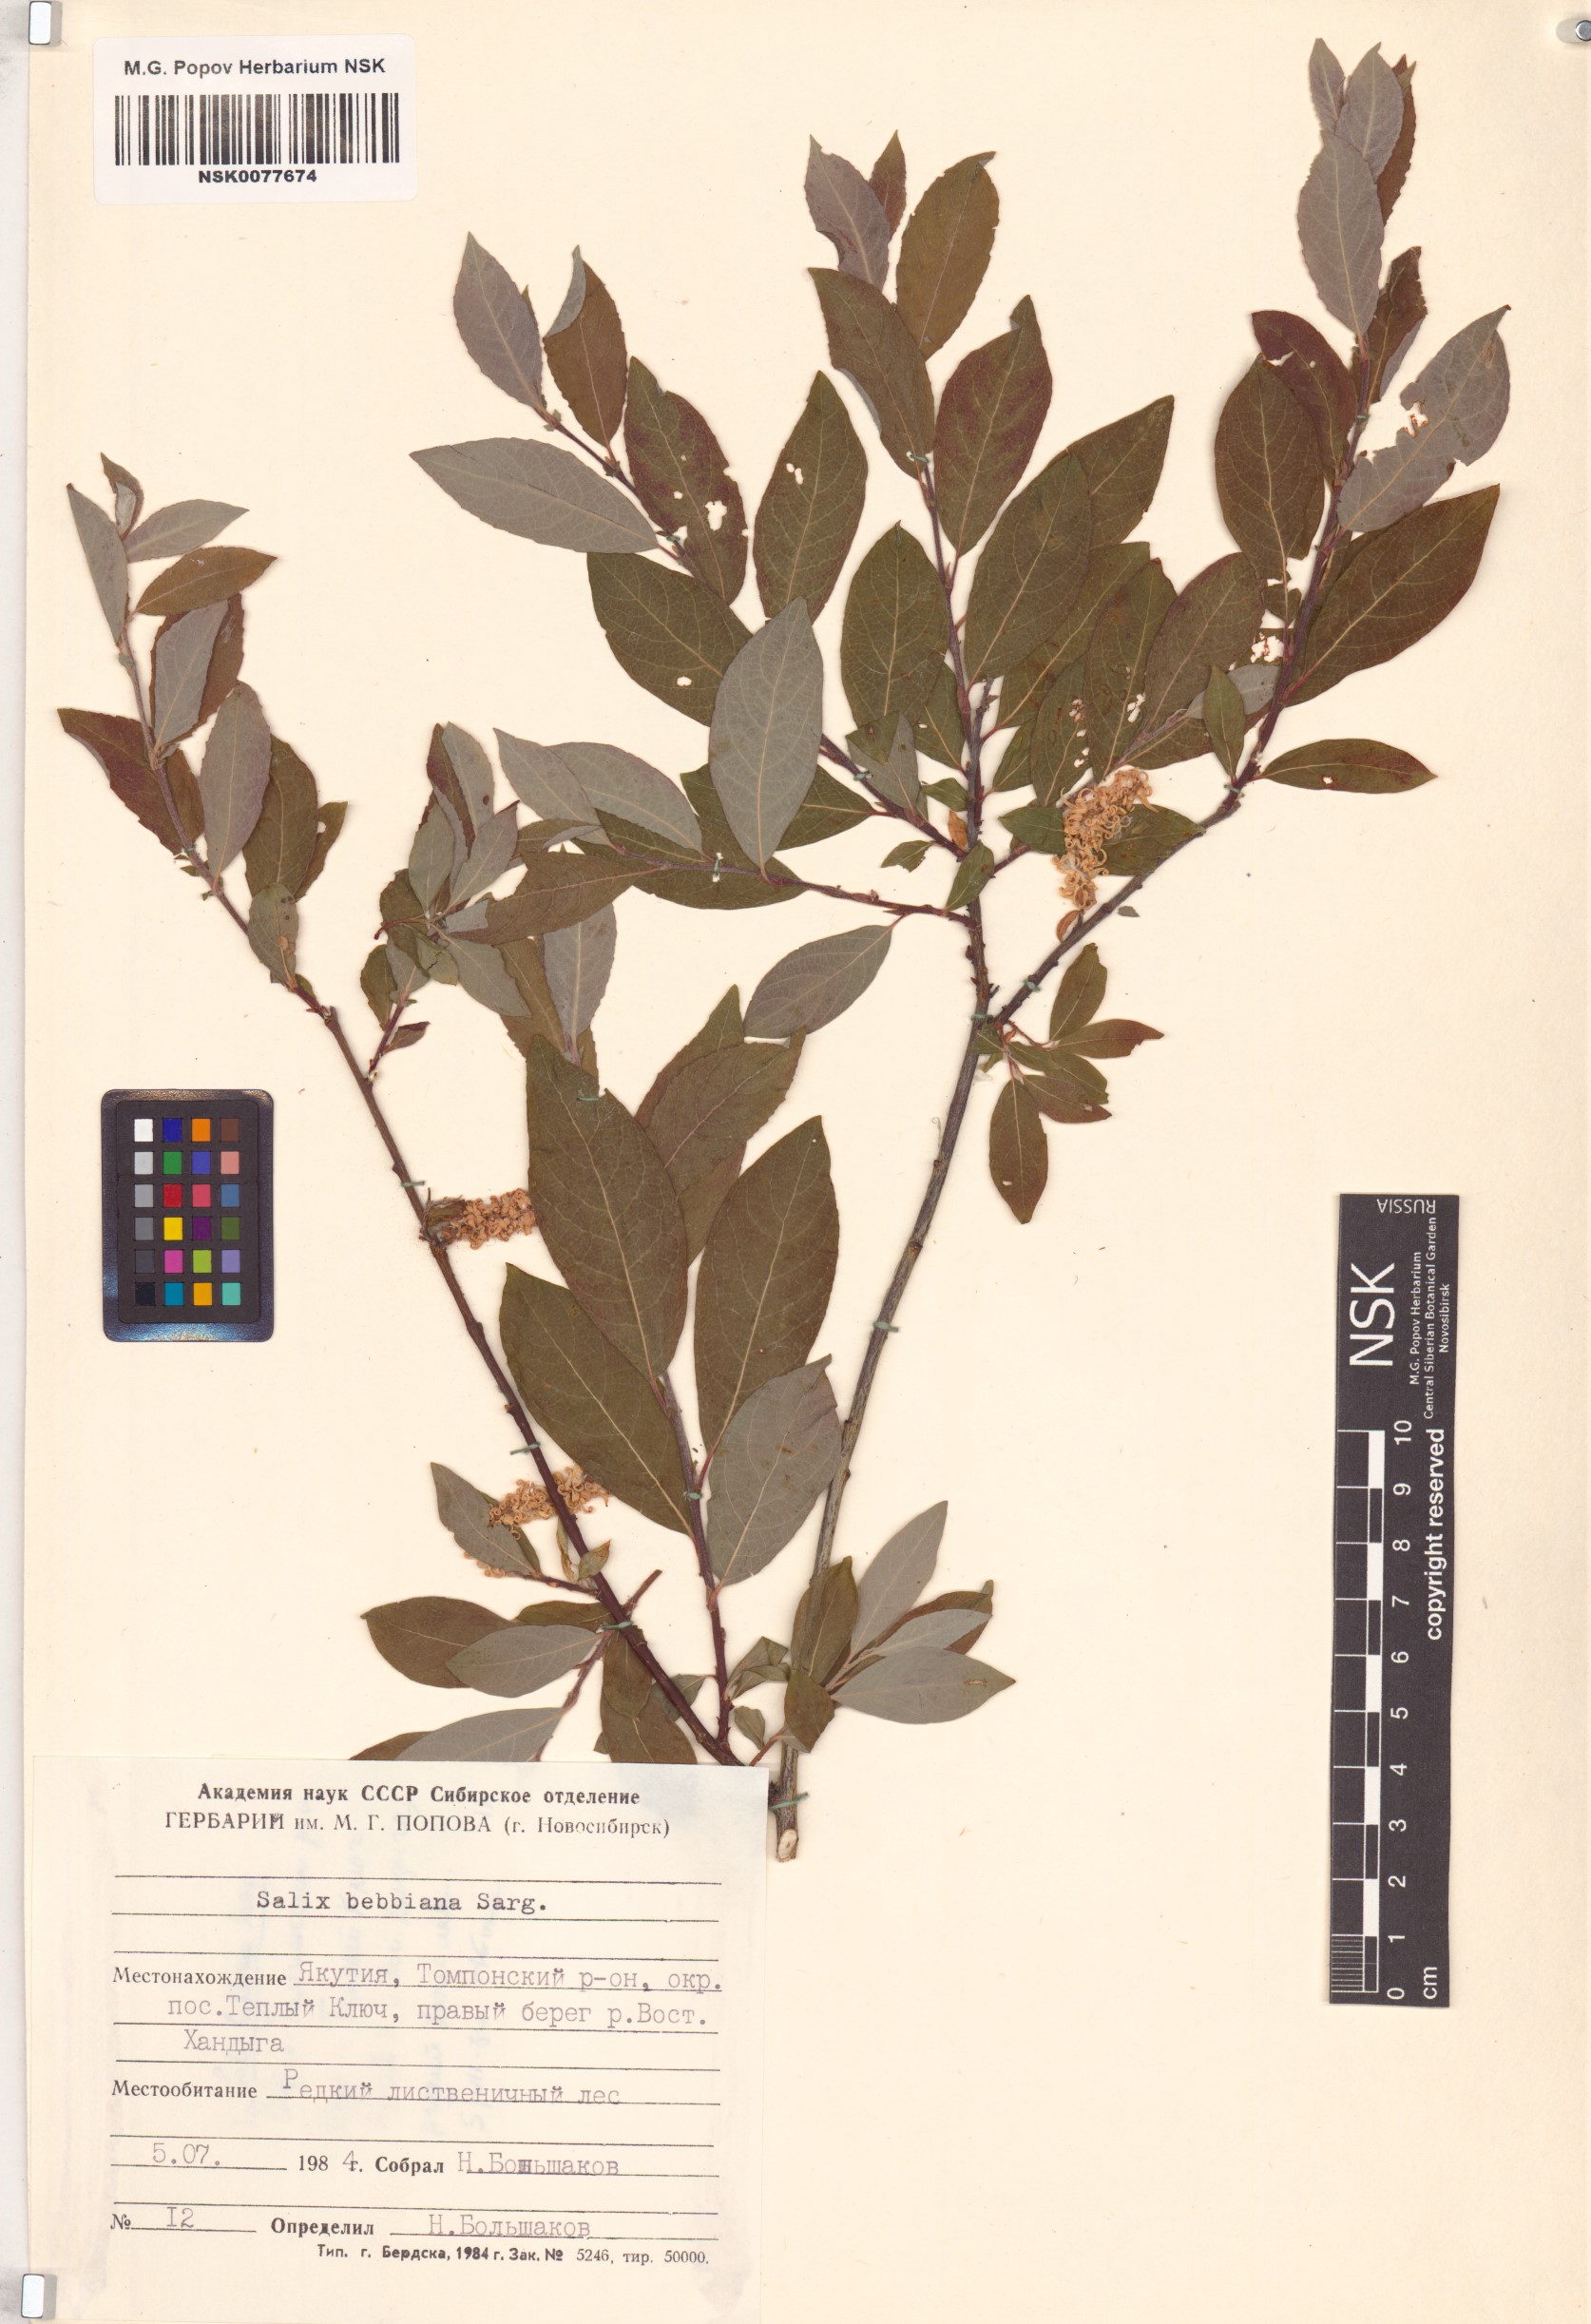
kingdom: Plantae
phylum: Tracheophyta
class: Magnoliopsida
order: Malpighiales
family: Salicaceae
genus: Salix
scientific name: Salix bebbiana
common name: Bebb's willow
